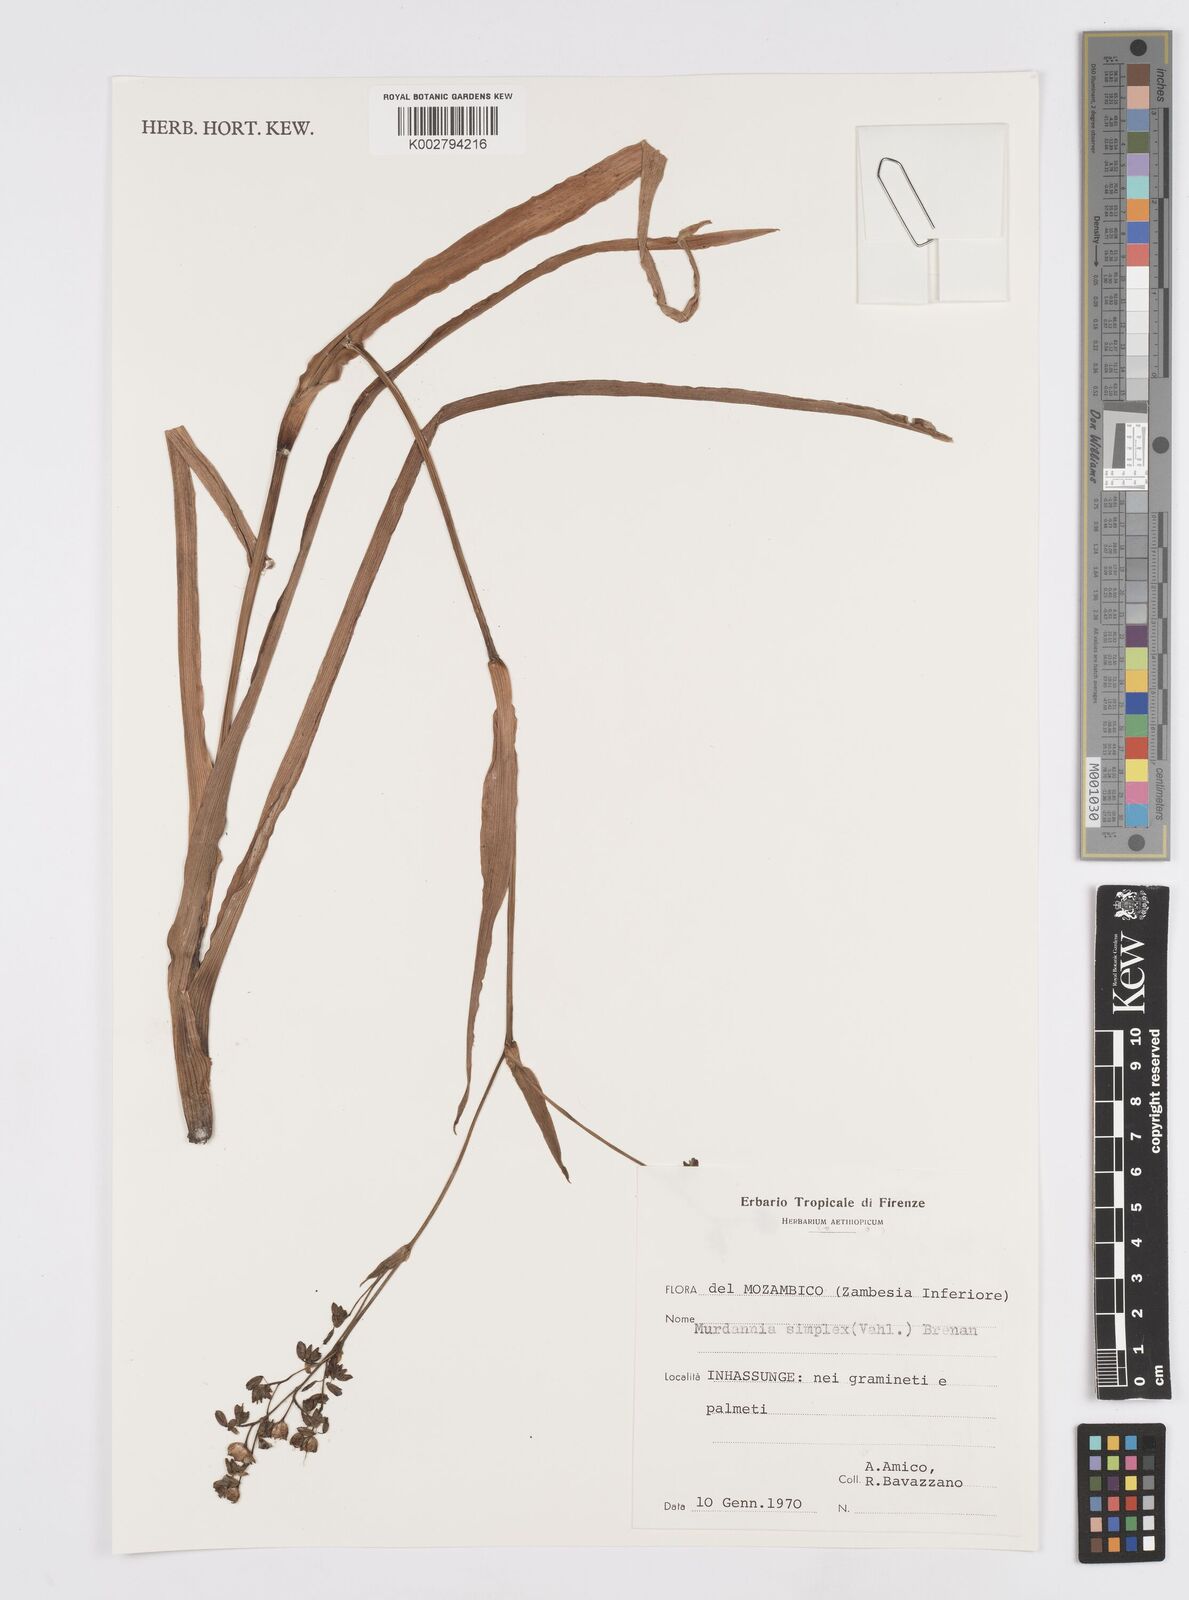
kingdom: Plantae
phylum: Tracheophyta
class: Liliopsida
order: Commelinales
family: Commelinaceae
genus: Murdannia
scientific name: Murdannia simplex
